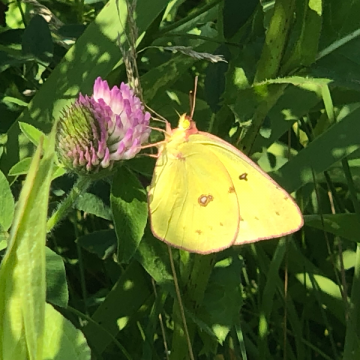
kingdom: Animalia
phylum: Arthropoda
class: Insecta
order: Lepidoptera
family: Pieridae
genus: Colias
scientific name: Colias philodice
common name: Clouded Sulphur
